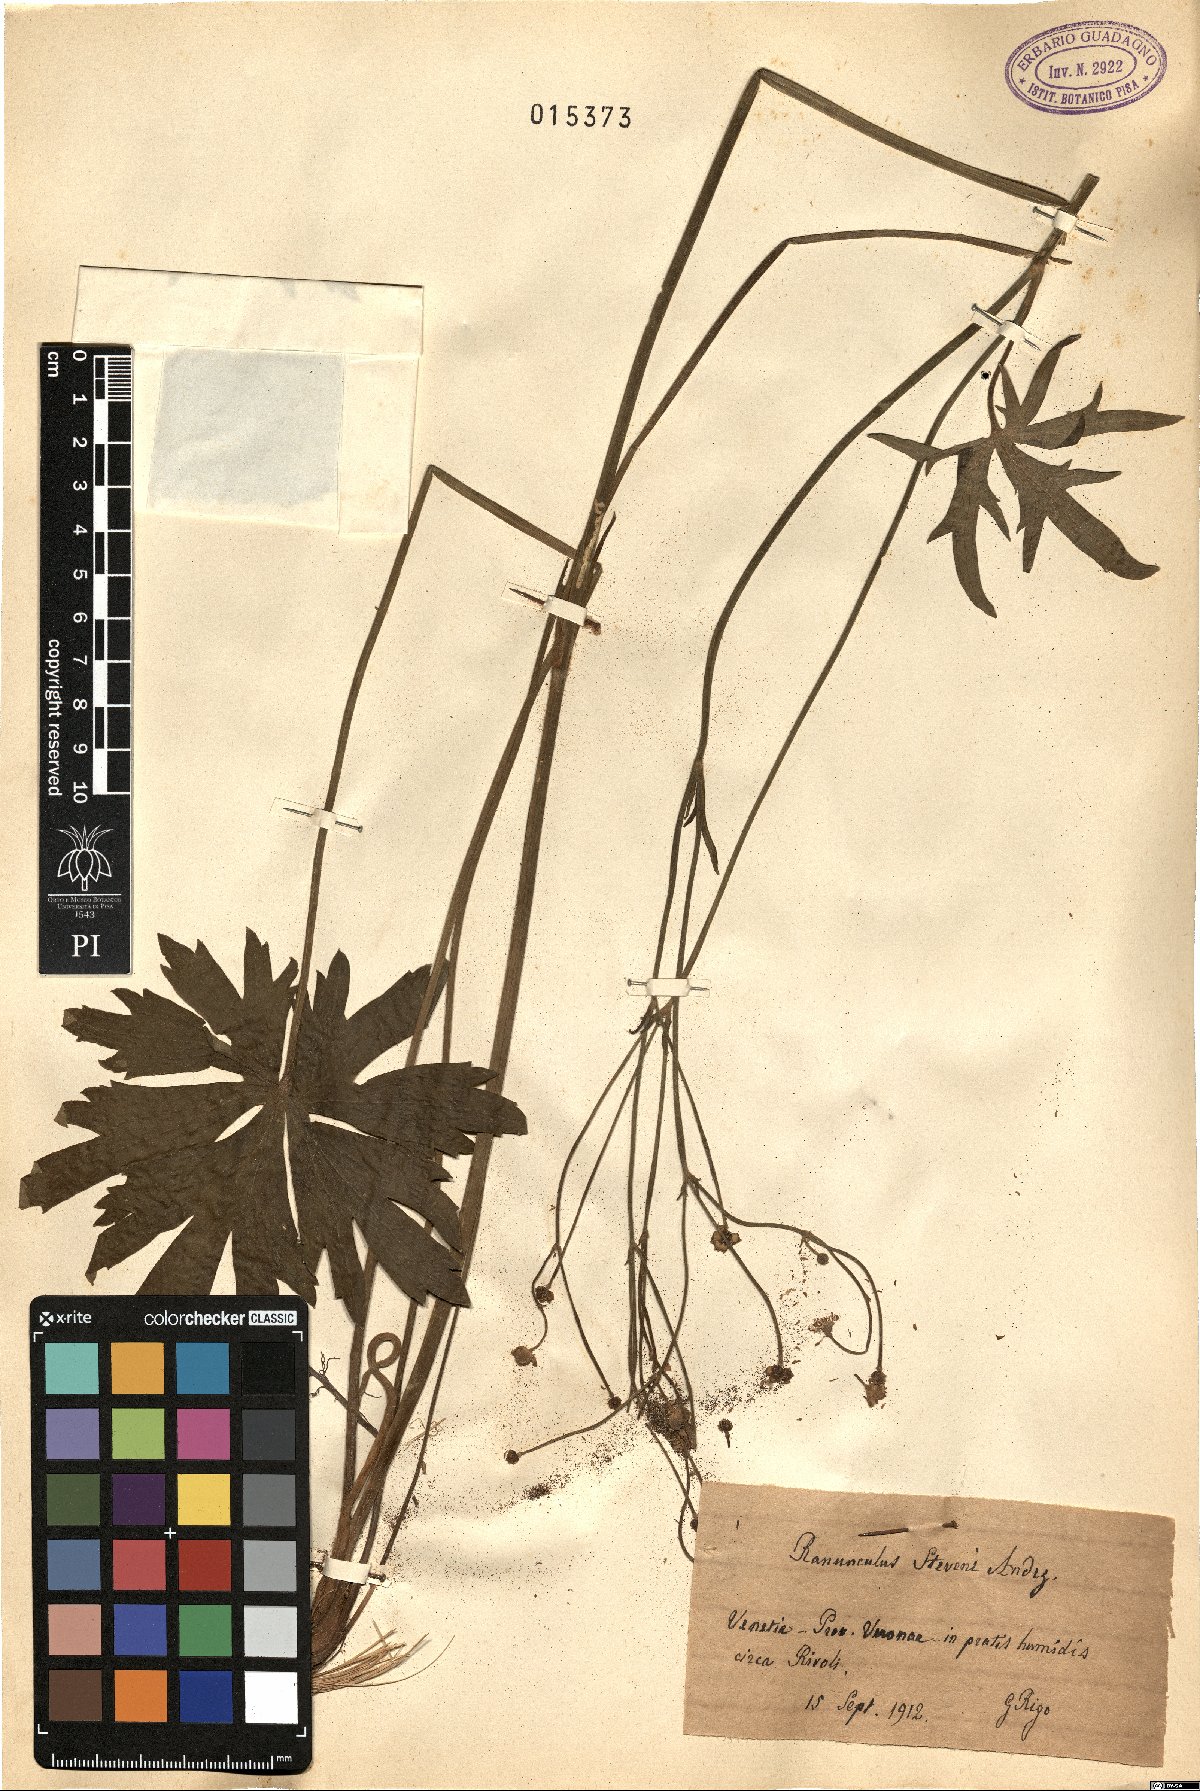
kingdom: Plantae
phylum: Tracheophyta
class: Magnoliopsida
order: Ranunculales
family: Ranunculaceae
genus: Ranunculus
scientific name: Ranunculus japonicus
